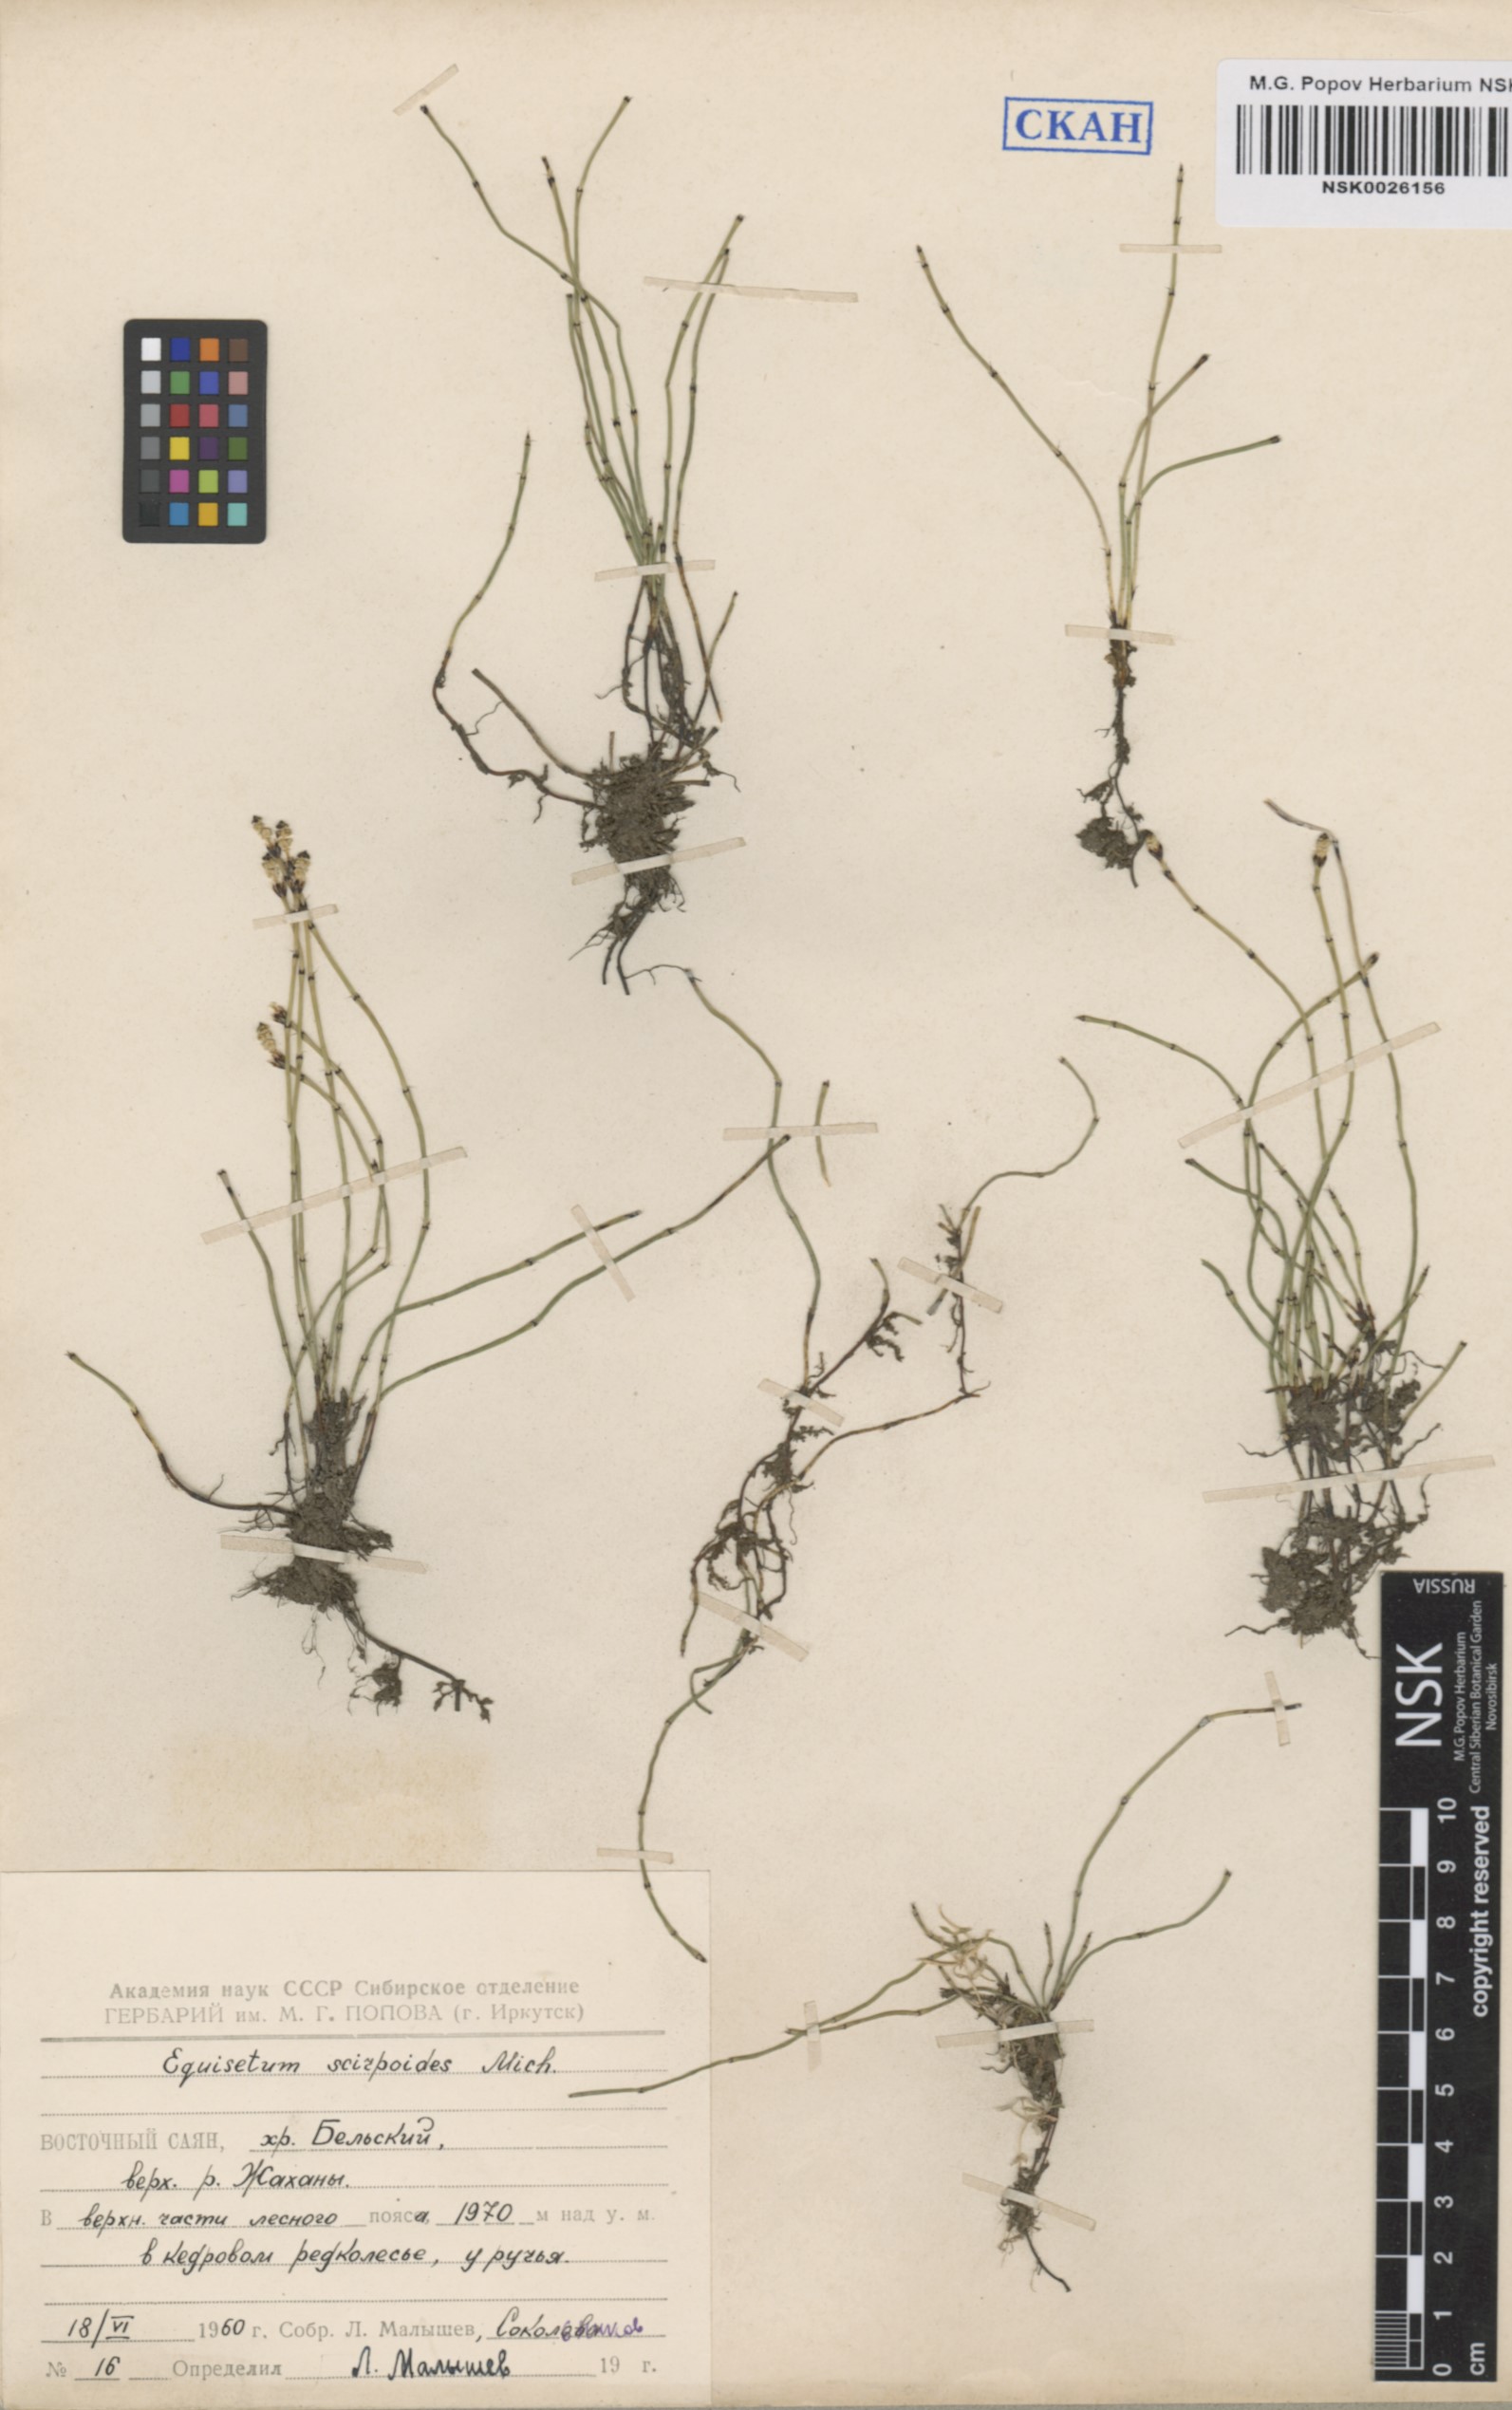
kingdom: Plantae
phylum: Tracheophyta
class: Polypodiopsida
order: Equisetales
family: Equisetaceae
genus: Equisetum
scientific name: Equisetum scirpoides
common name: Delicate horsetail
